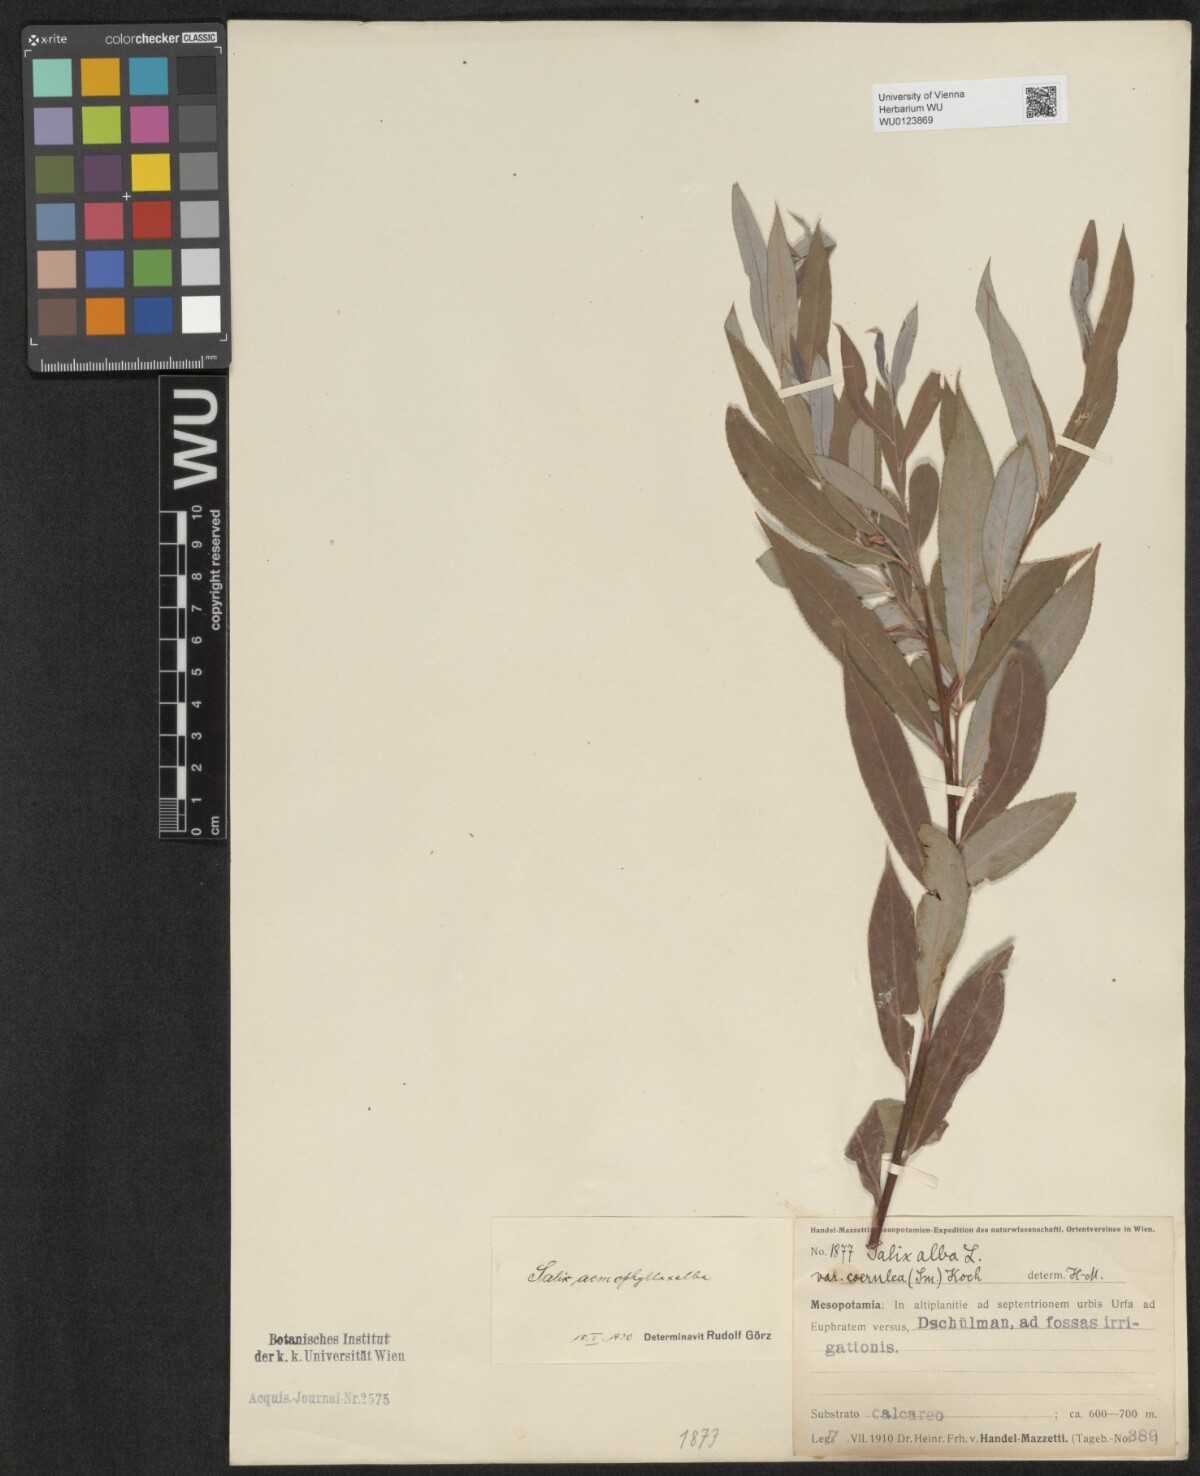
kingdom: Plantae
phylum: Tracheophyta
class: Magnoliopsida
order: Malpighiales
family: Salicaceae
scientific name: Salicaceae
